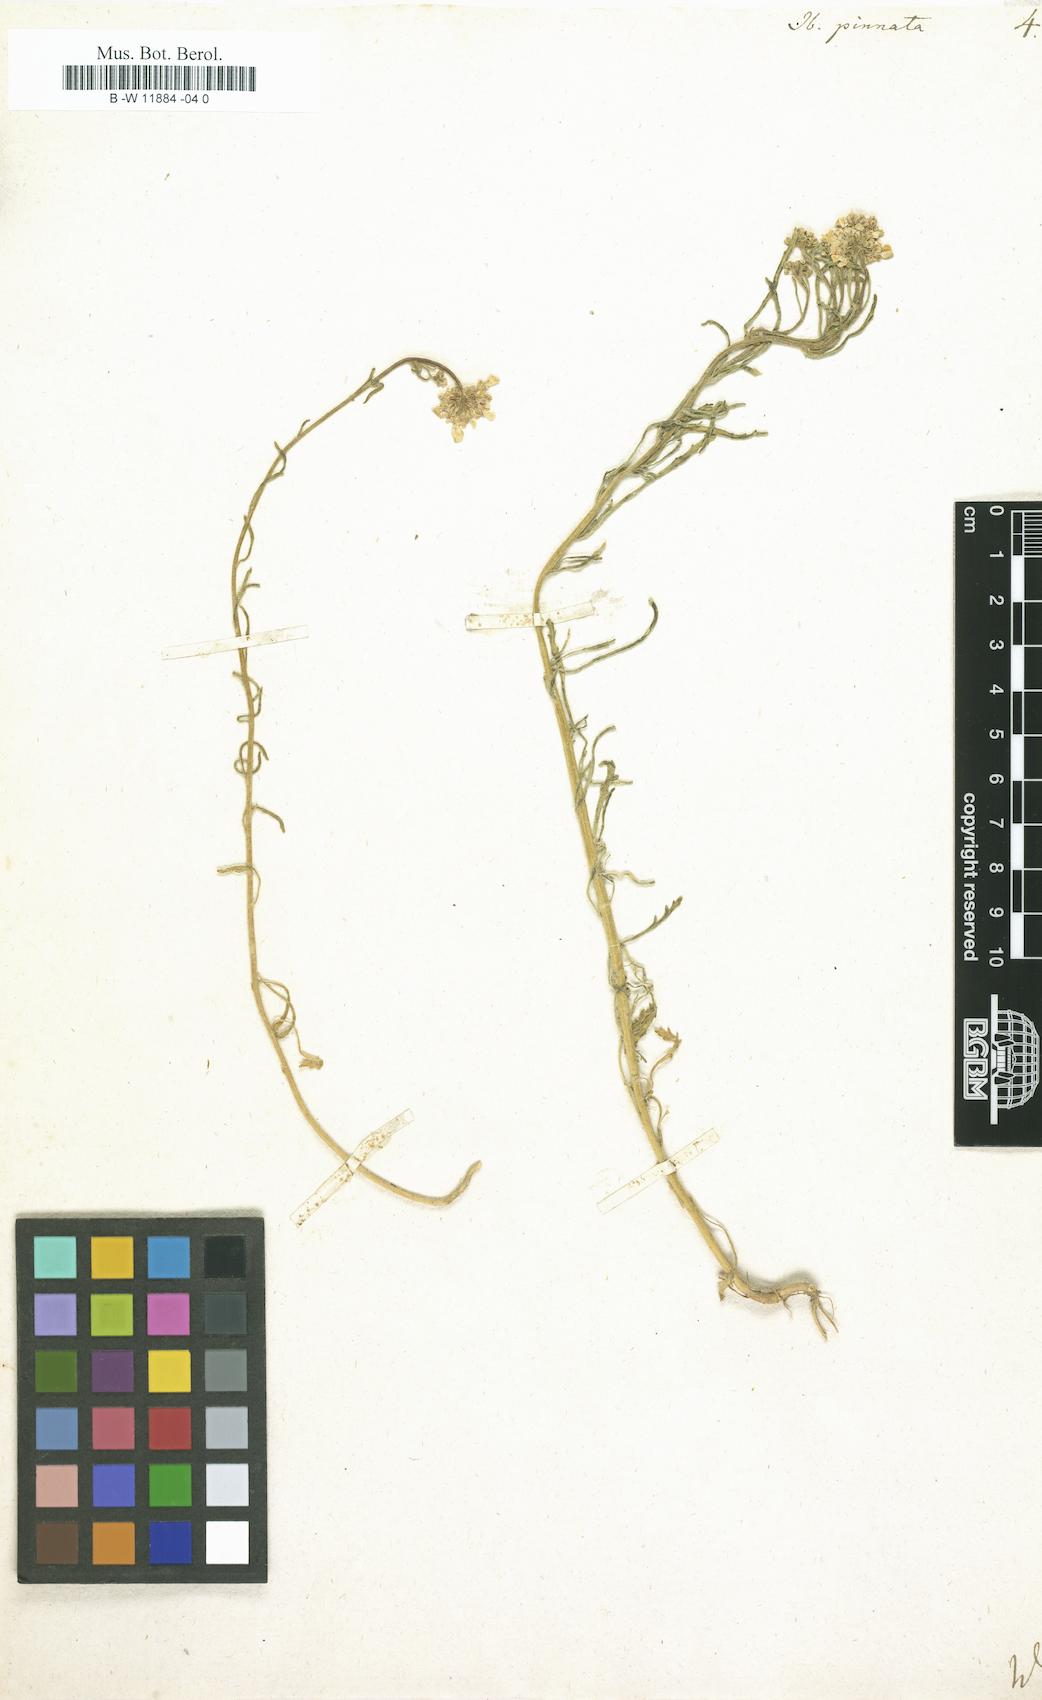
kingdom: Plantae
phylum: Tracheophyta
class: Magnoliopsida
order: Brassicales
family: Brassicaceae
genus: Iberis
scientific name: Iberis pinnata
